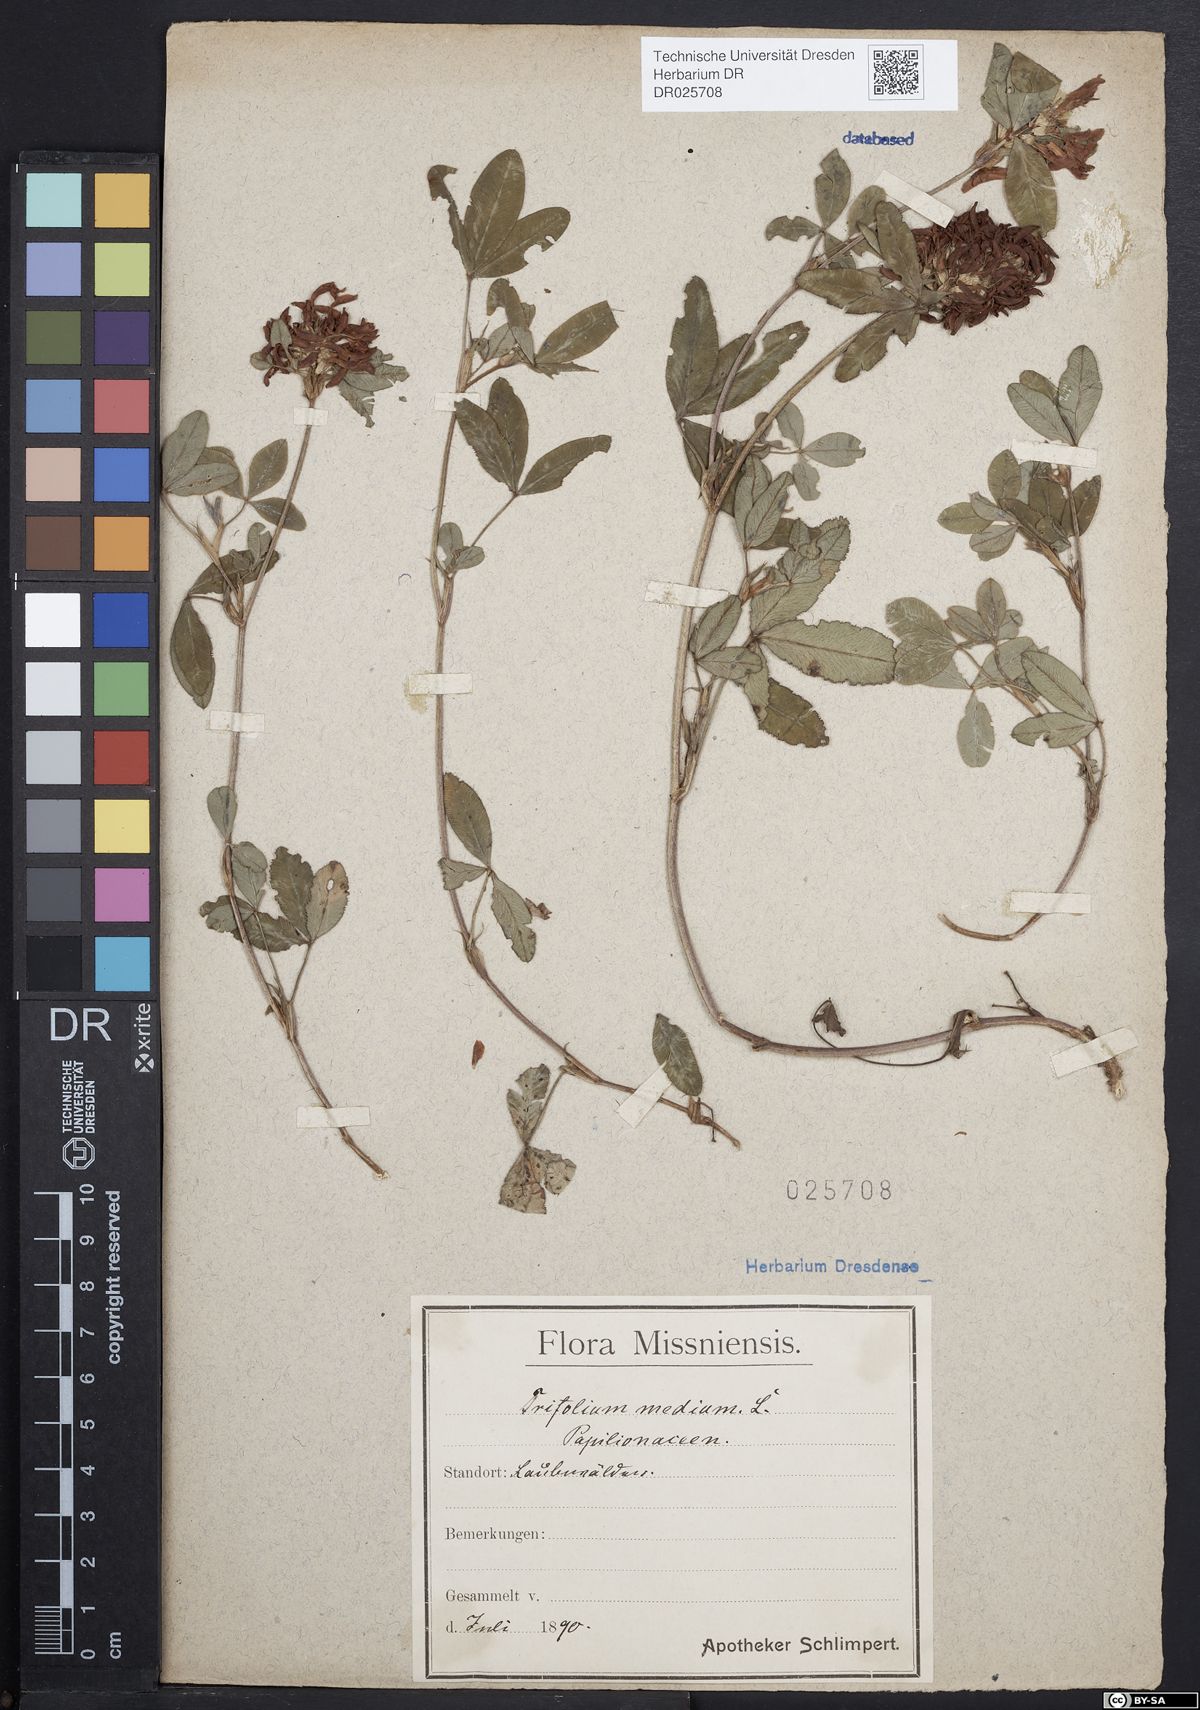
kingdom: Plantae
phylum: Tracheophyta
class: Magnoliopsida
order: Fabales
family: Fabaceae
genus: Trifolium
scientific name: Trifolium medium
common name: Zigzag clover
